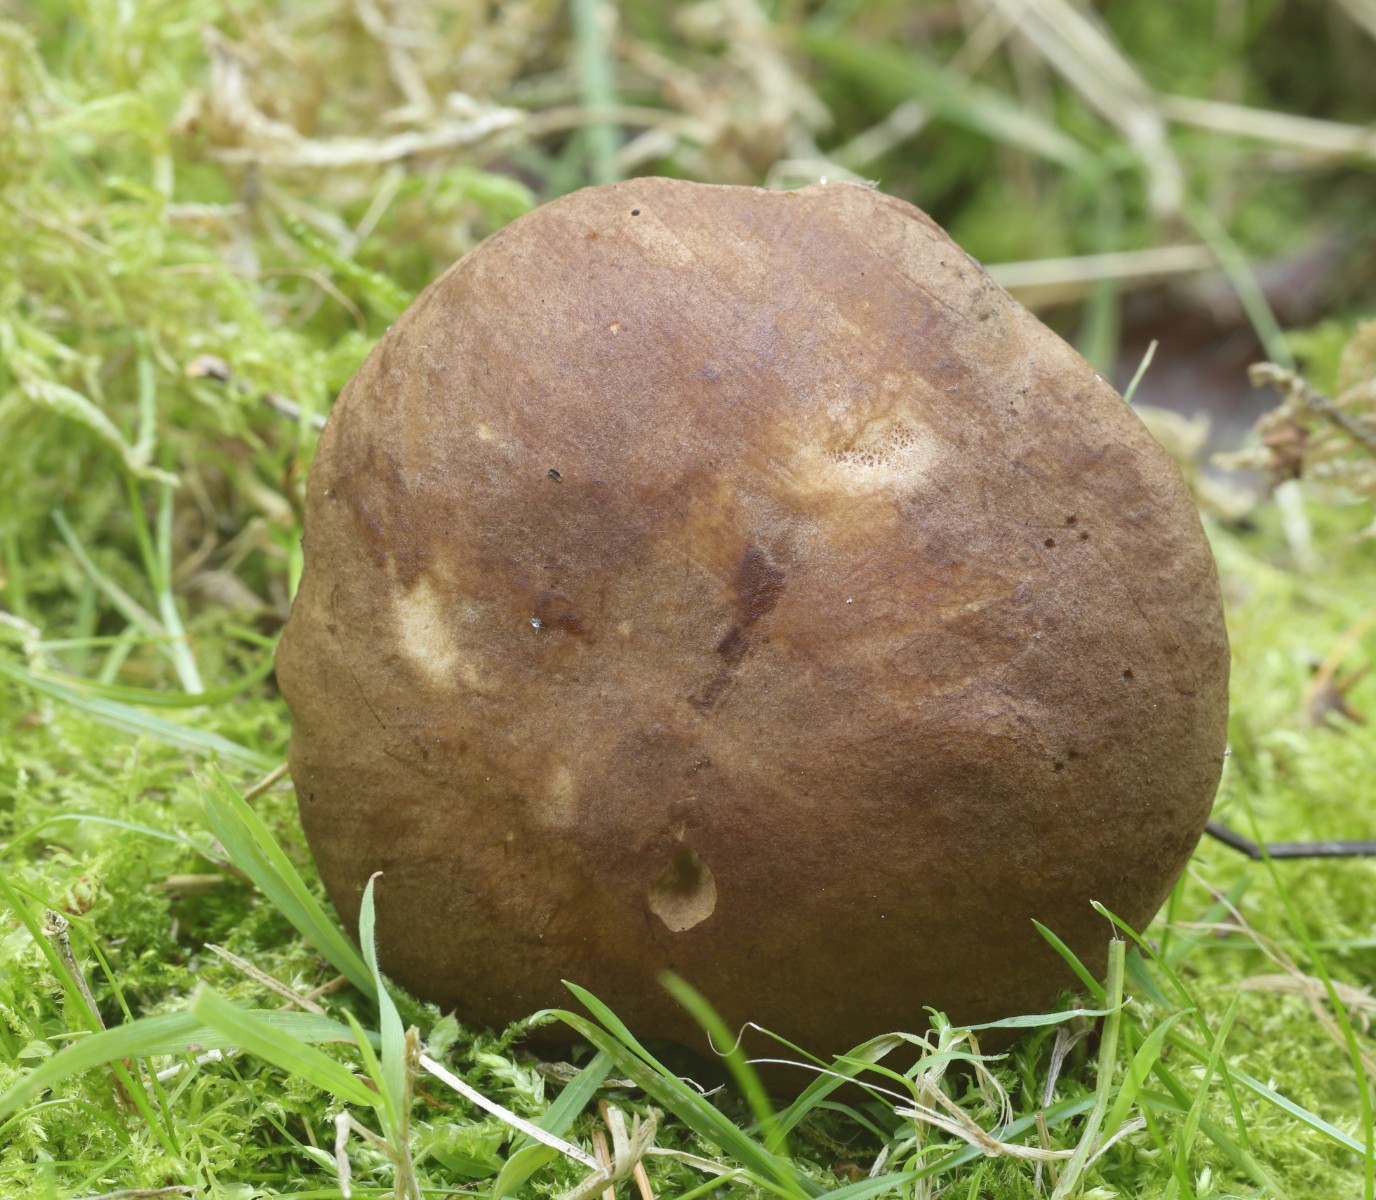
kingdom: Fungi
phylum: Basidiomycota
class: Agaricomycetes
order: Boletales
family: Boletaceae
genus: Leccinum
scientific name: Leccinum scabrum
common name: brun skælrørhat
